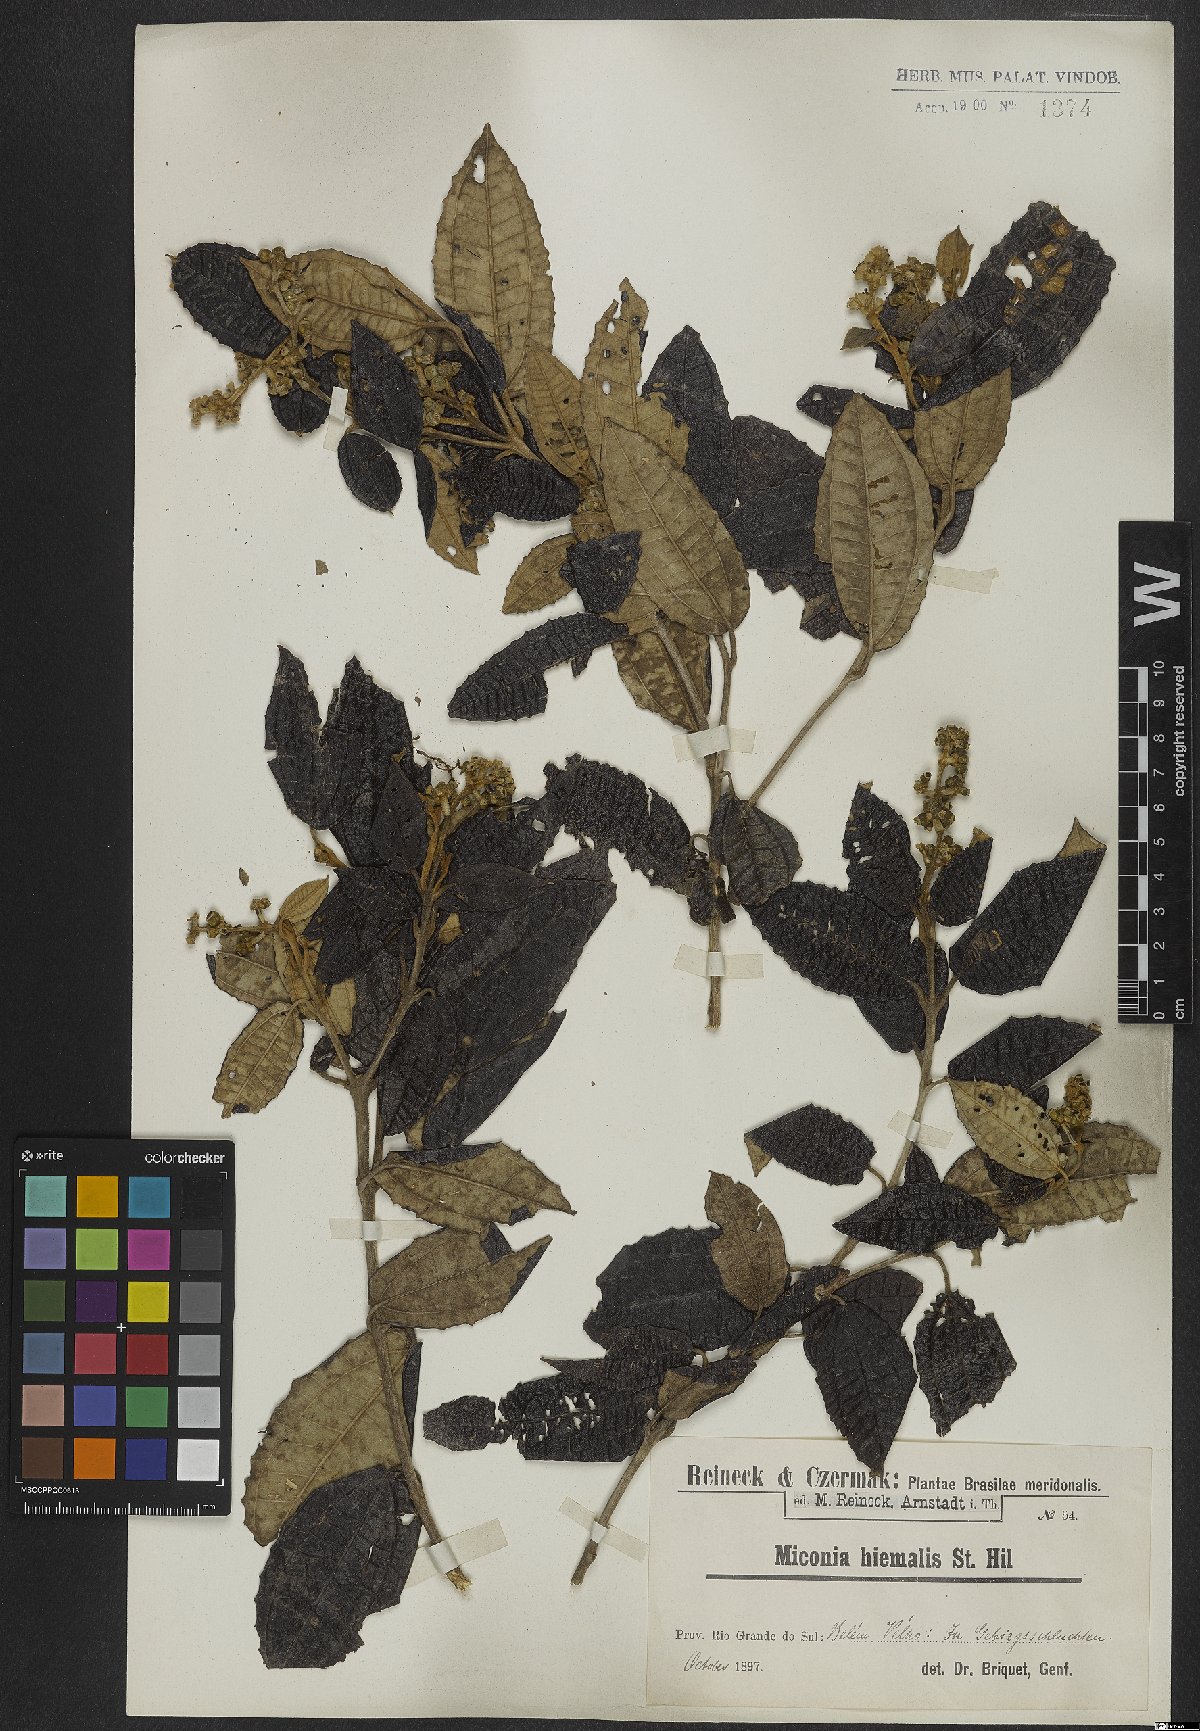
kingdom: Plantae
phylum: Tracheophyta
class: Magnoliopsida
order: Myrtales
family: Melastomataceae
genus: Miconia
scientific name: Miconia hyemalis
